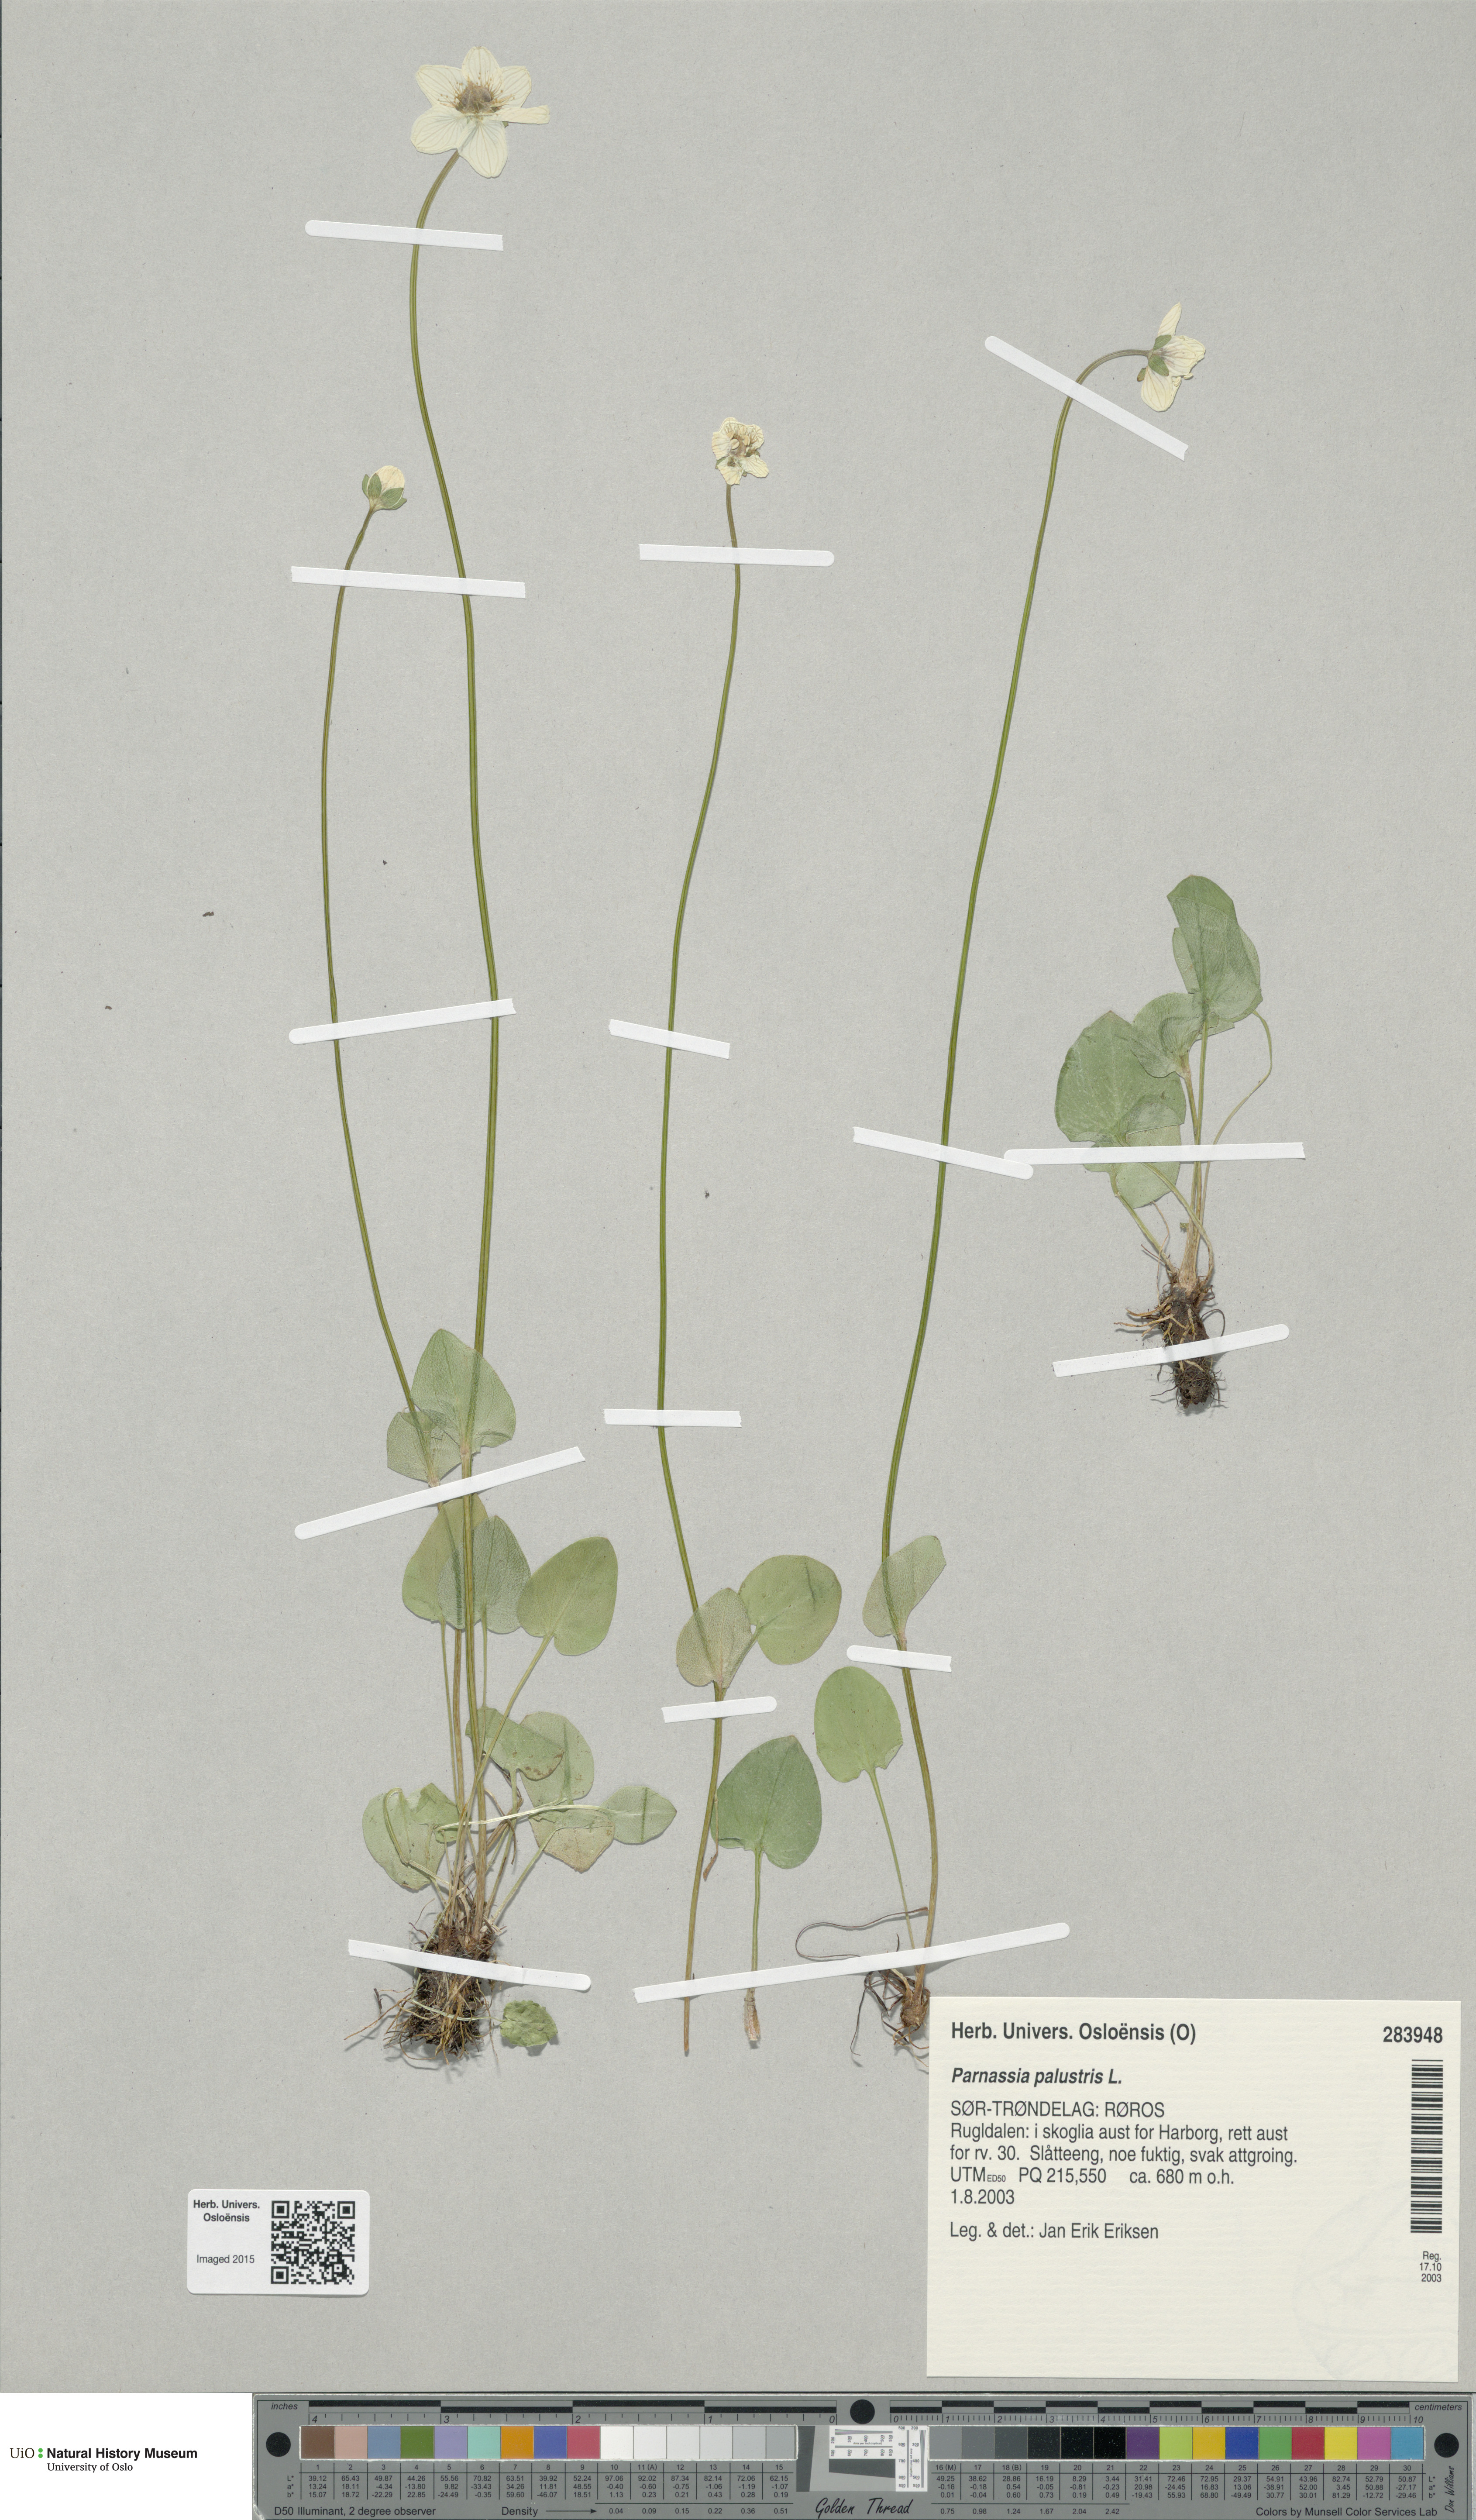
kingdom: Plantae
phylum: Tracheophyta
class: Magnoliopsida
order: Celastrales
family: Parnassiaceae
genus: Parnassia
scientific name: Parnassia palustris
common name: Grass-of-parnassus
